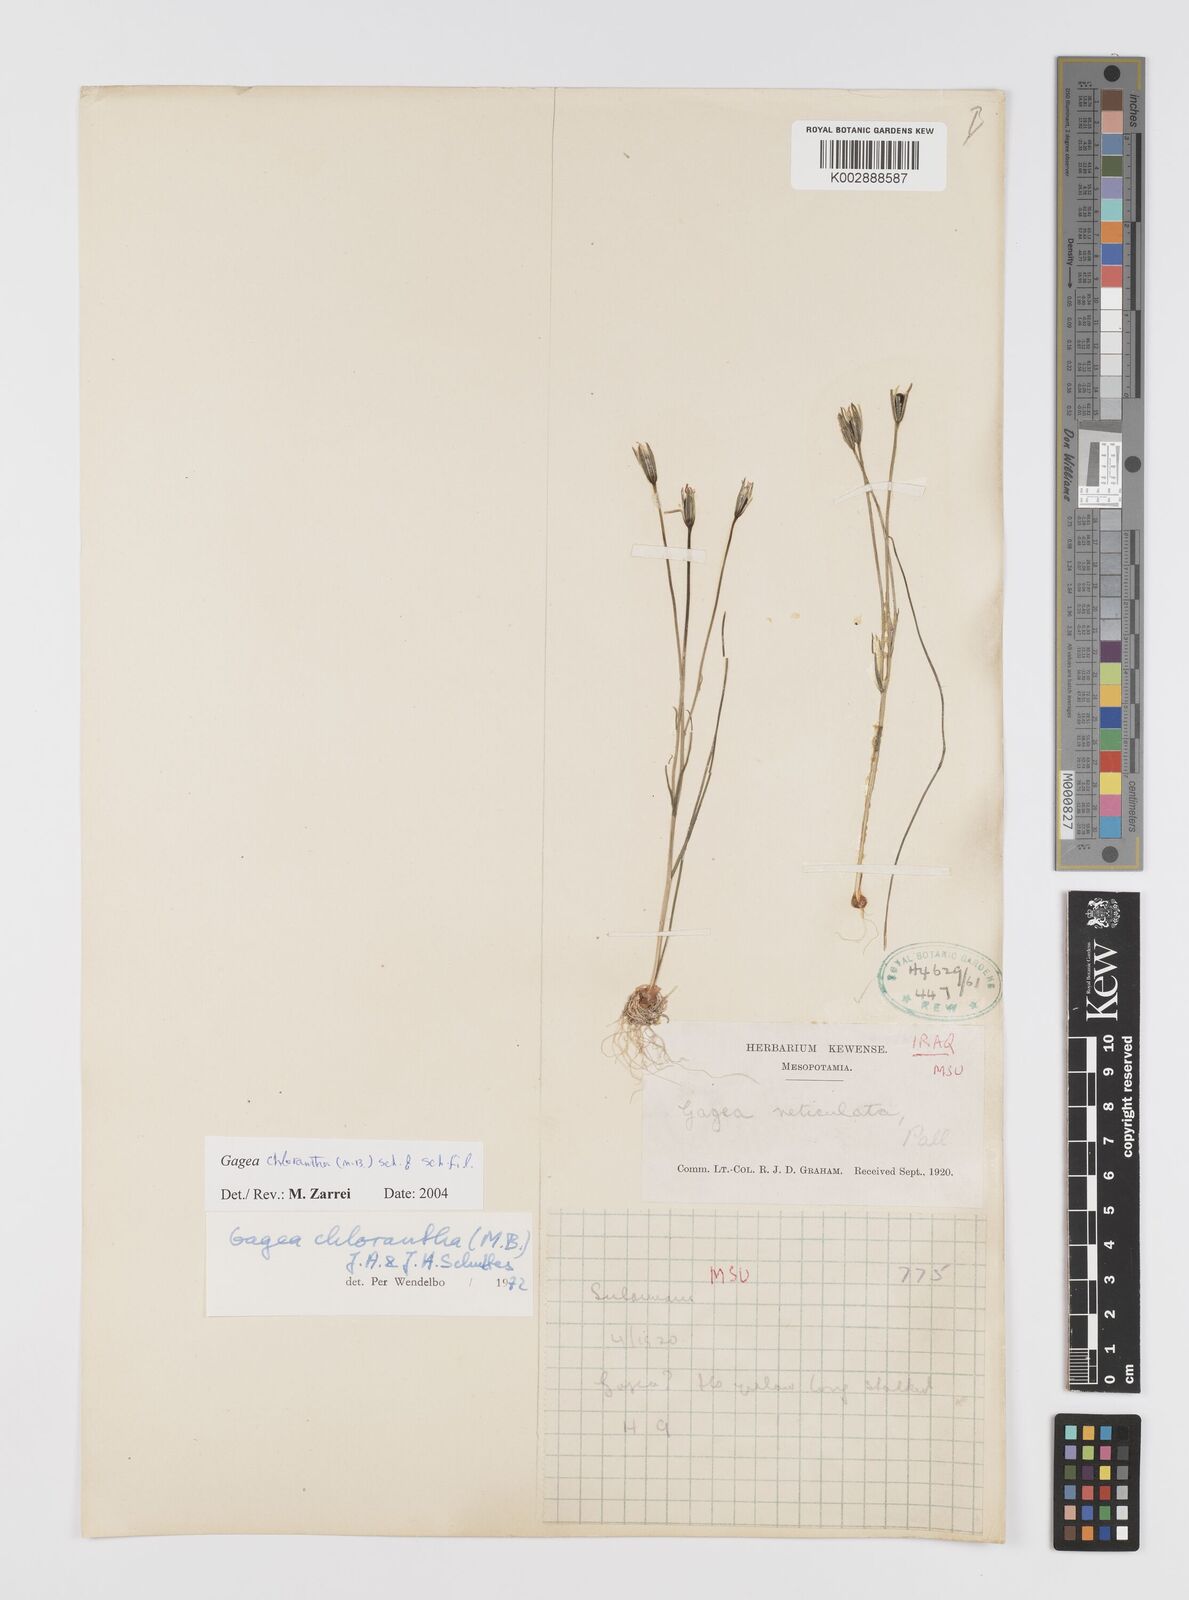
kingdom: Plantae
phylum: Tracheophyta
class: Liliopsida
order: Liliales
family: Liliaceae
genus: Gagea
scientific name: Gagea chlorantha
